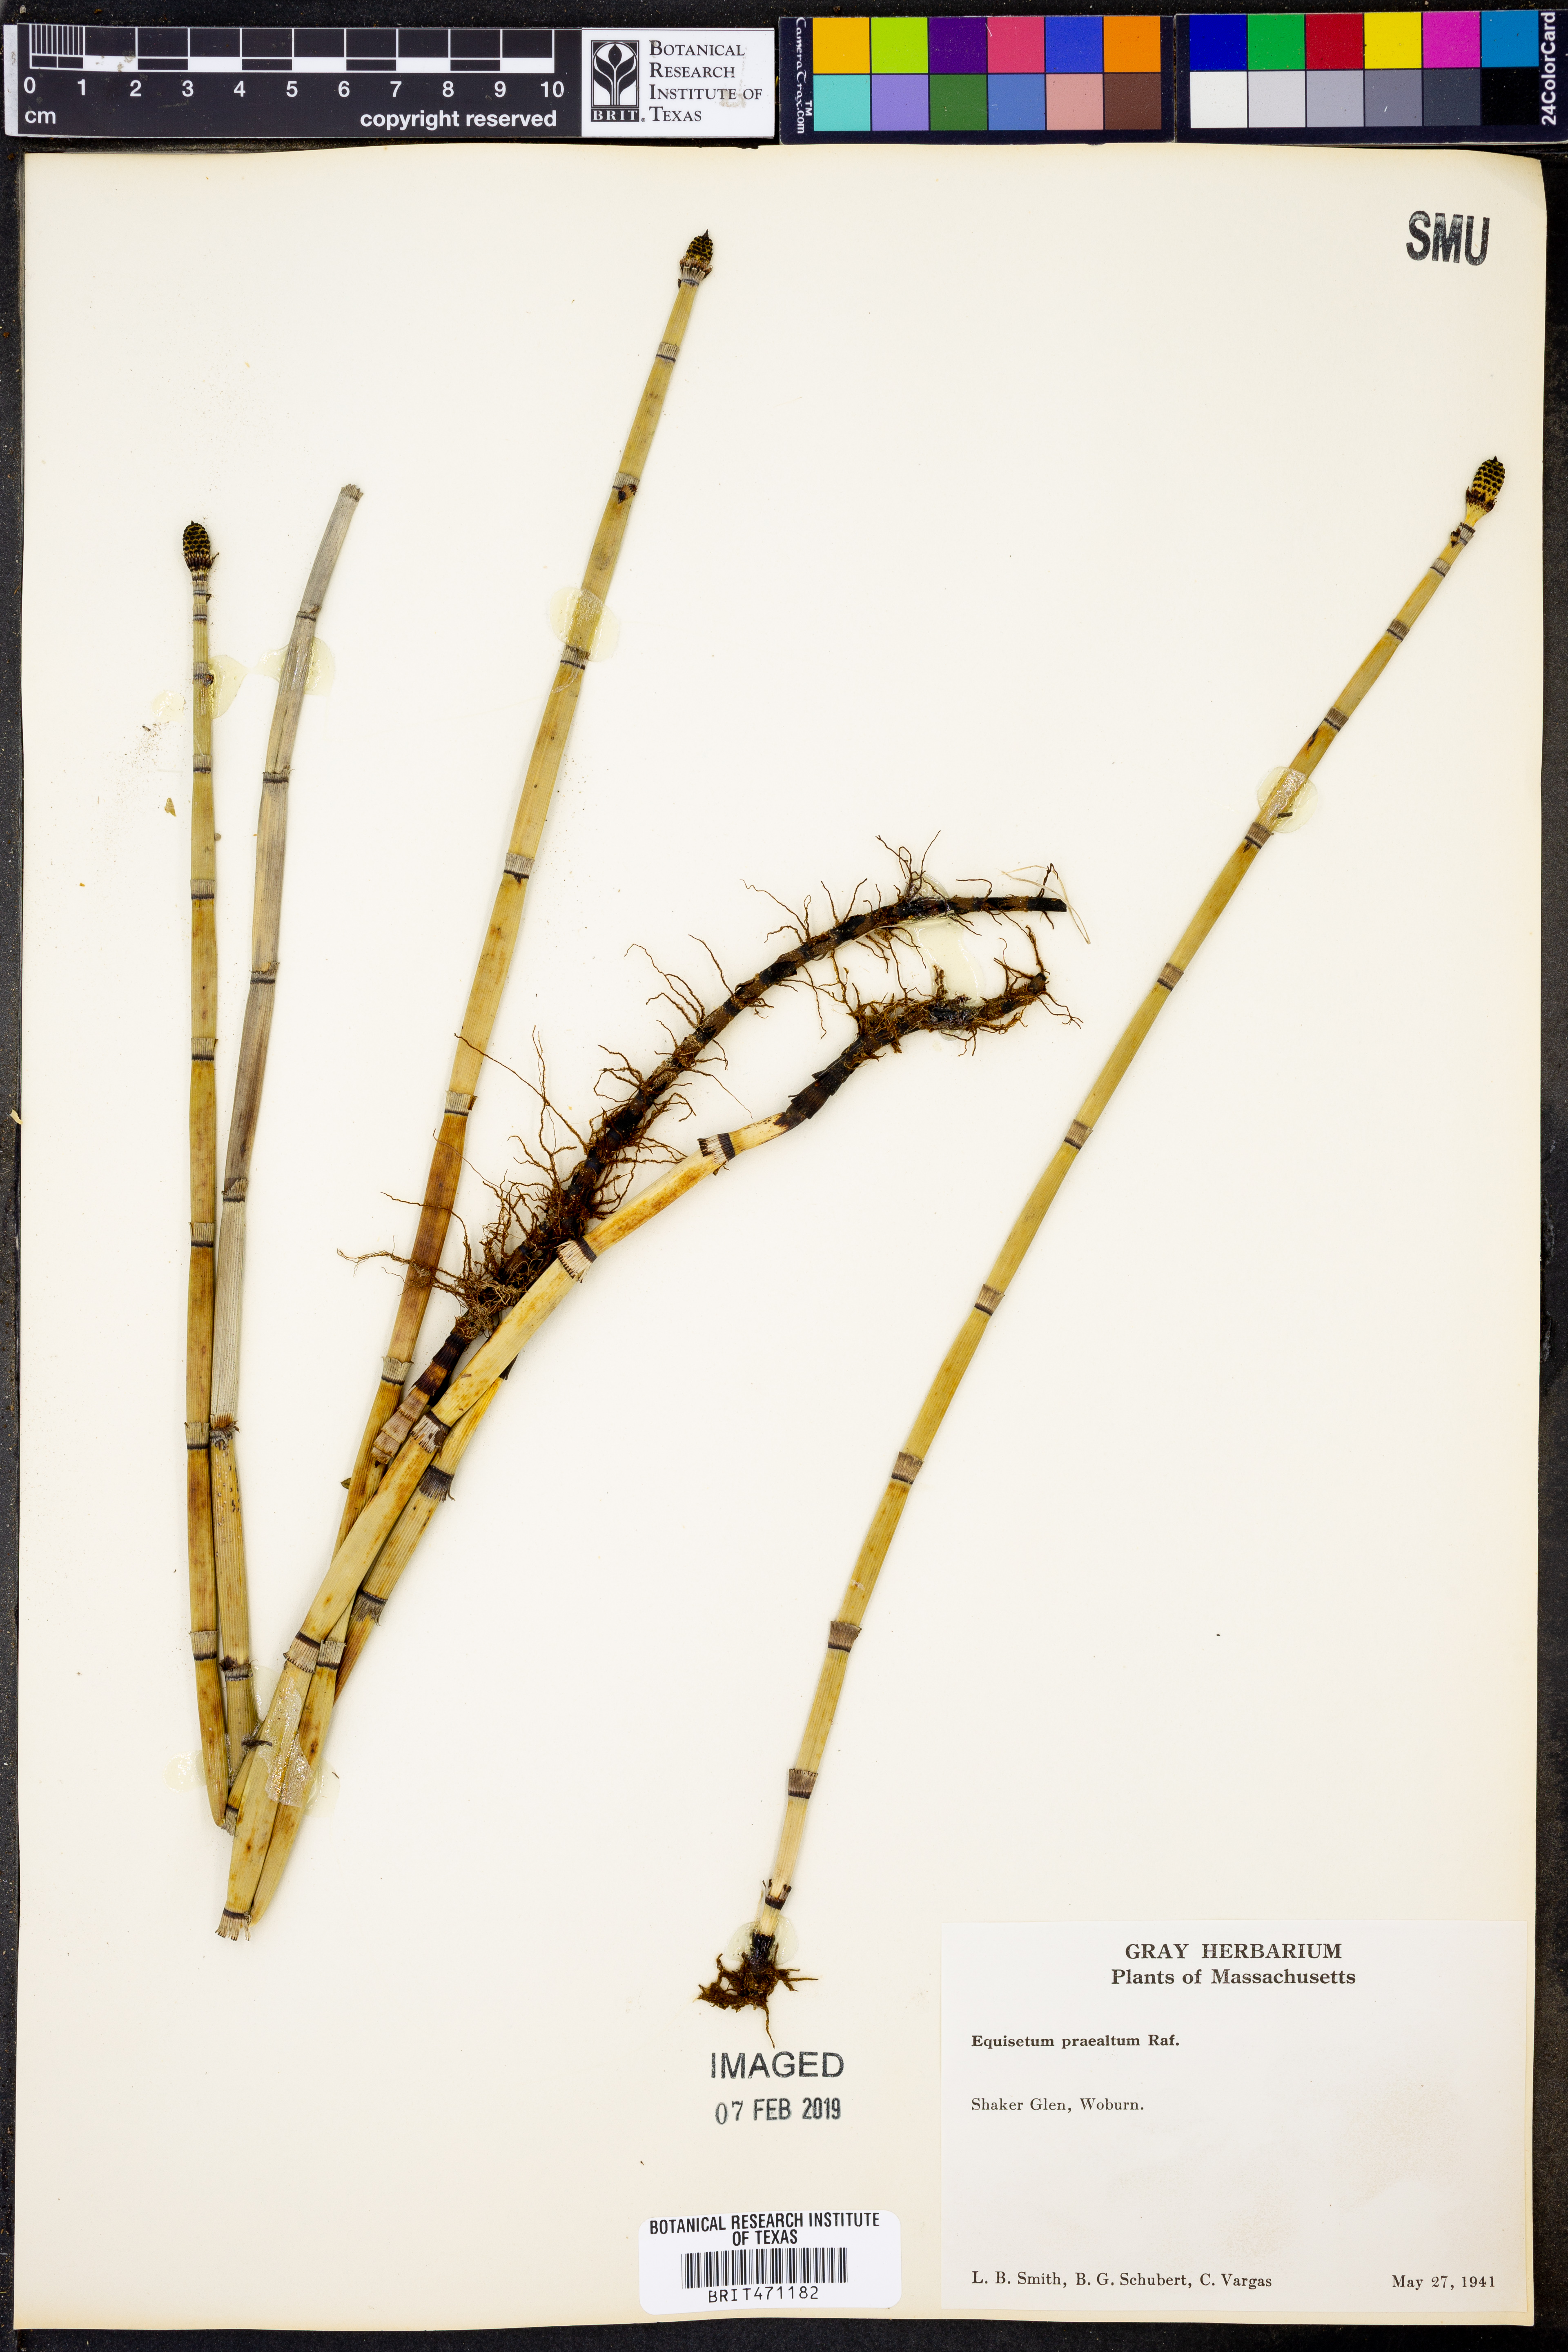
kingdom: Plantae
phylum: Tracheophyta
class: Polypodiopsida
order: Equisetales
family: Equisetaceae
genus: Equisetum
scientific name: Equisetum praealtum
